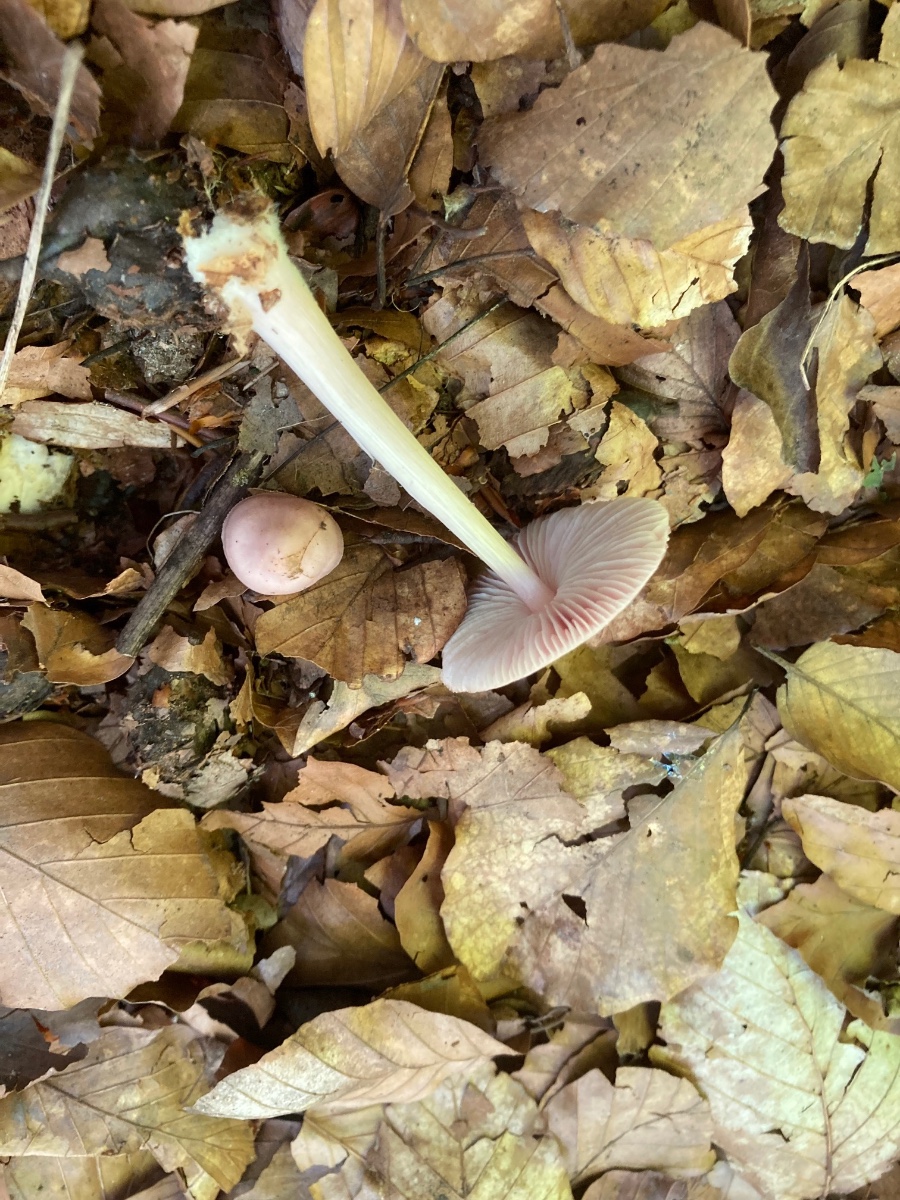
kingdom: Fungi
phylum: Basidiomycota
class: Agaricomycetes
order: Agaricales
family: Mycenaceae
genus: Mycena
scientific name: Mycena rosea
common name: rosa huesvamp
